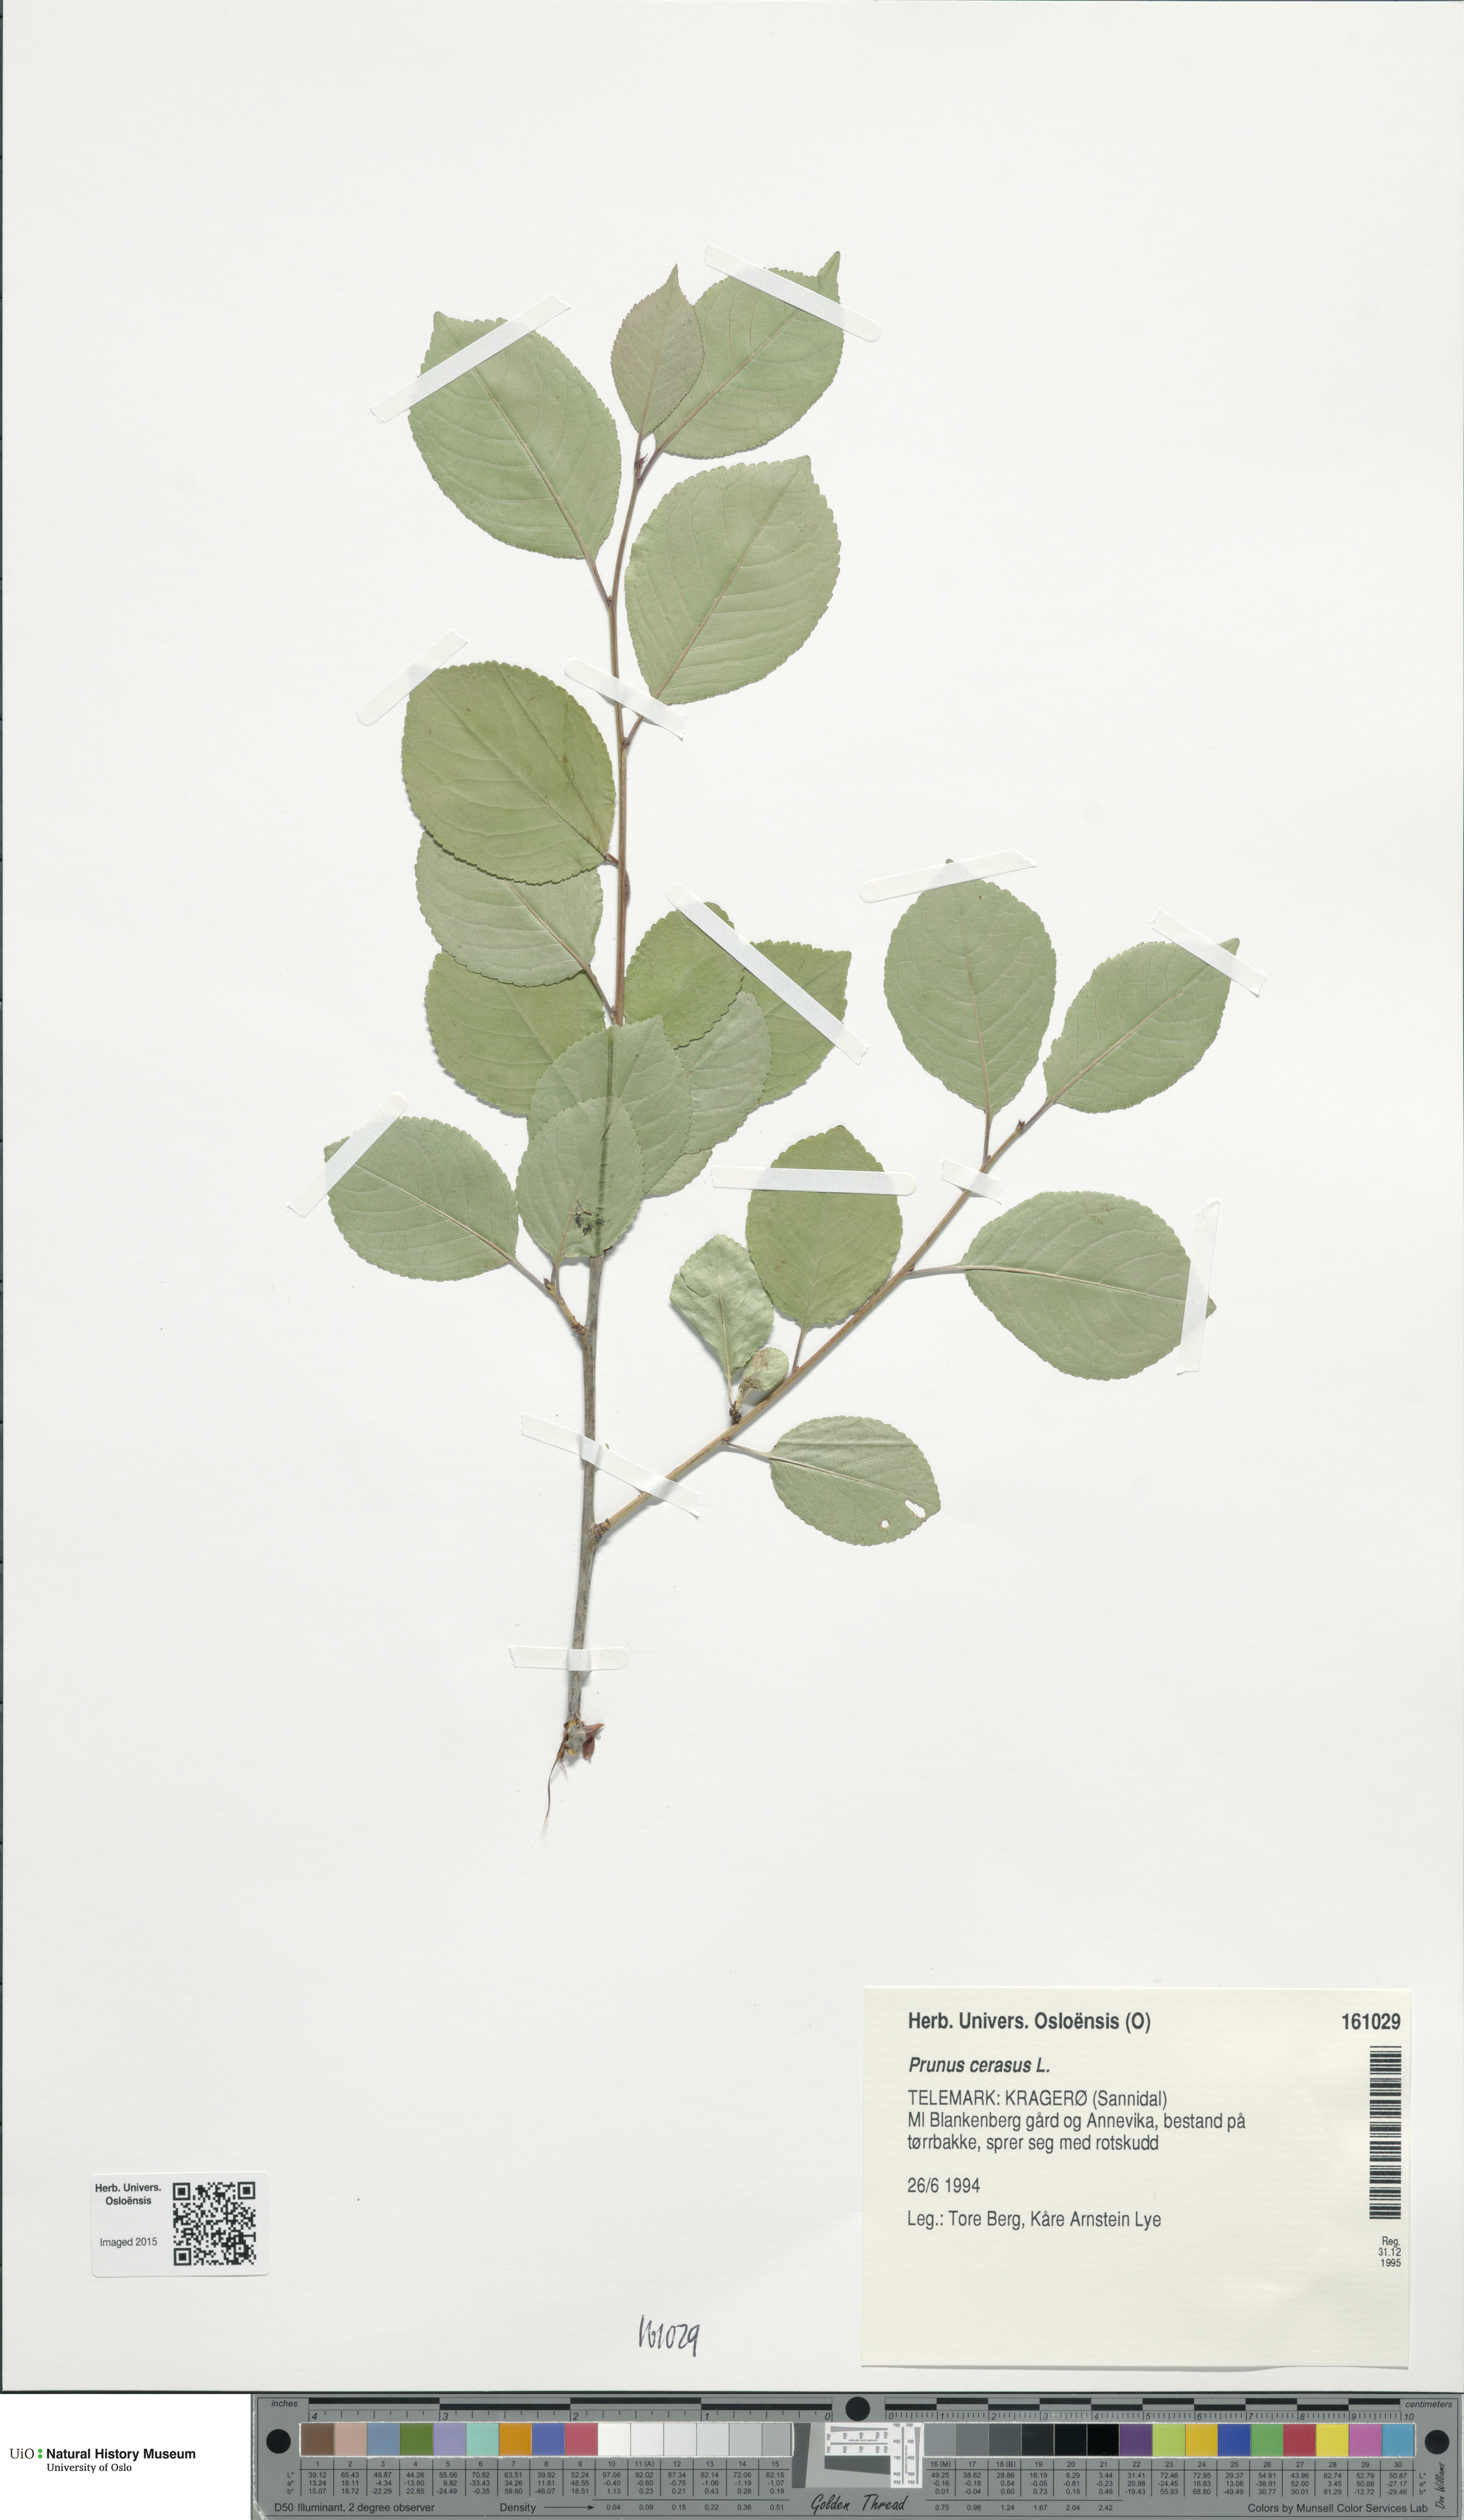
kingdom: Plantae
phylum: Tracheophyta
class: Magnoliopsida
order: Rosales
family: Rosaceae
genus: Prunus
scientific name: Prunus cerasus
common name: Morello cherry
